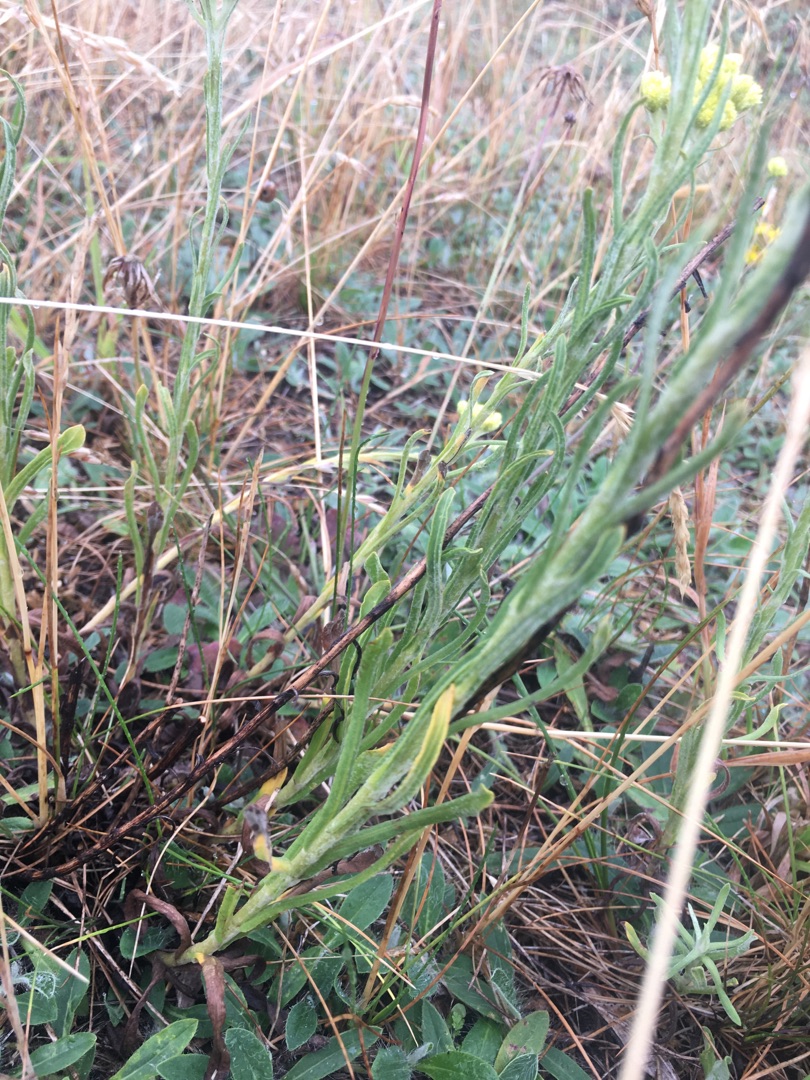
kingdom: Plantae
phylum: Tracheophyta
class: Magnoliopsida
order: Asterales
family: Asteraceae
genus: Helichrysum
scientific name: Helichrysum arenarium
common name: Gul evighedsblomst
